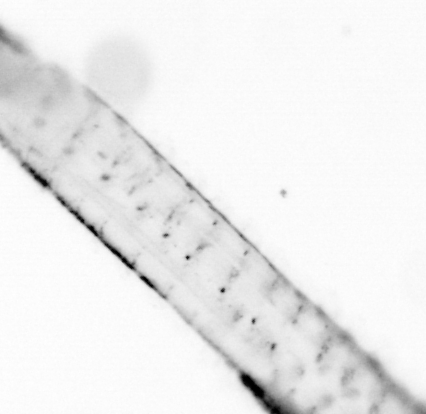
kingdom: Animalia
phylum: Chaetognatha
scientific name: Chaetognatha
